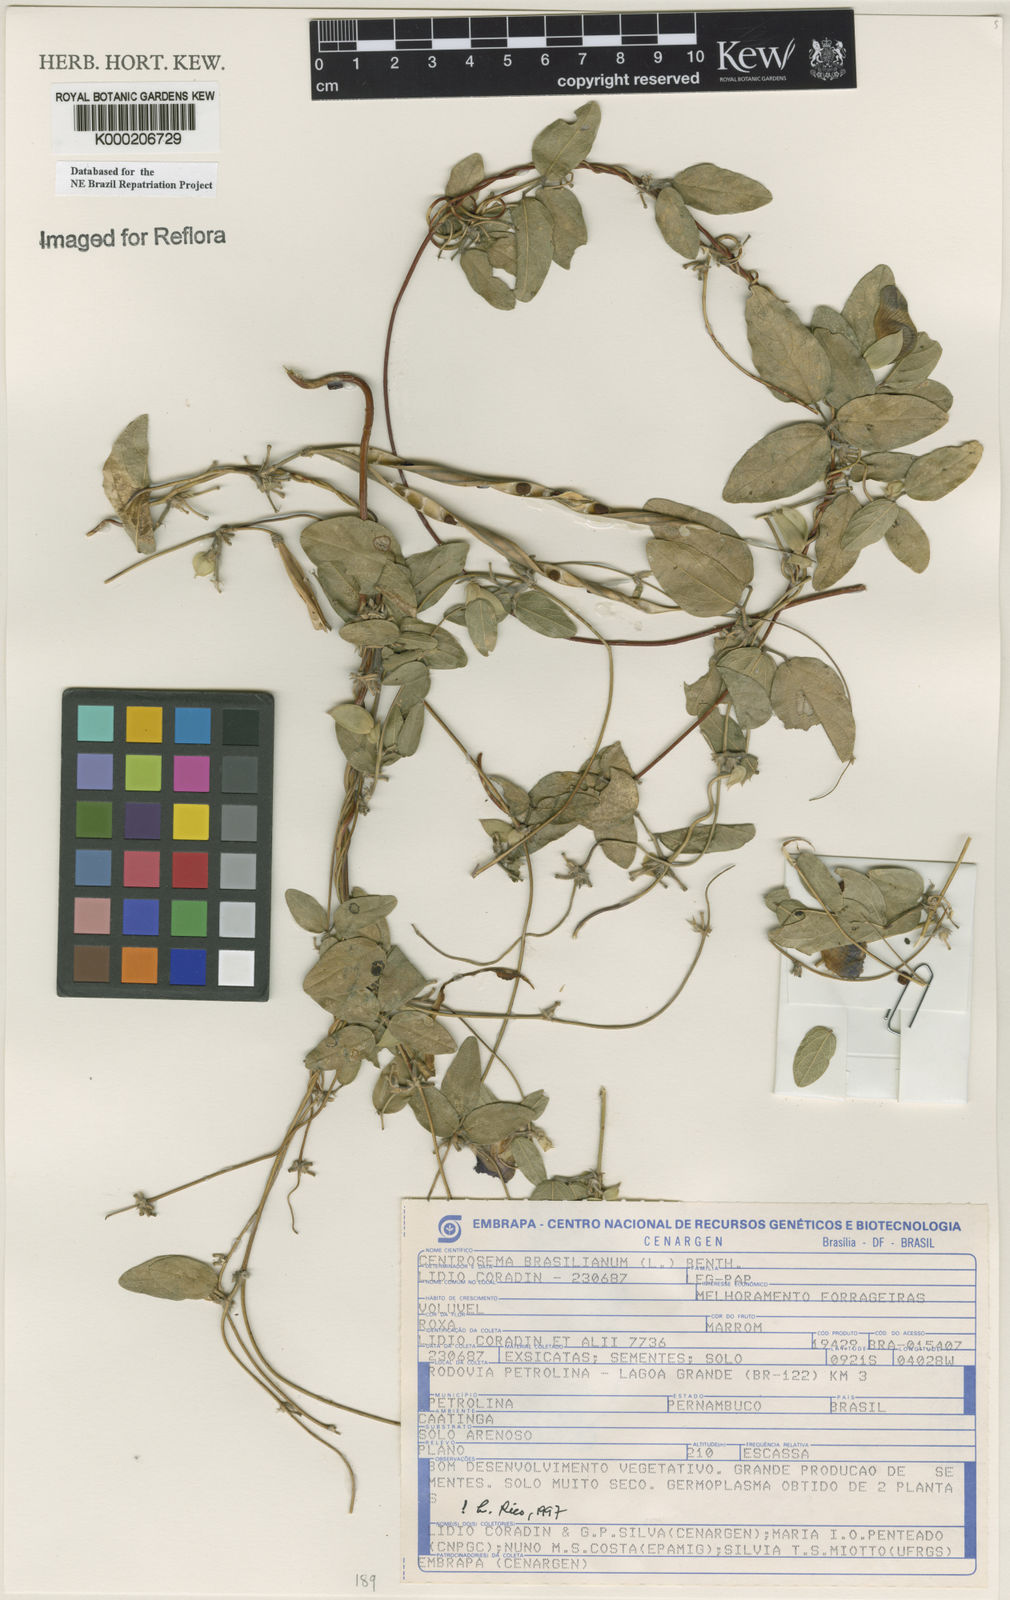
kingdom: Plantae
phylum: Tracheophyta
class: Magnoliopsida
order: Fabales
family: Fabaceae
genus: Centrosema
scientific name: Centrosema brasilianum
